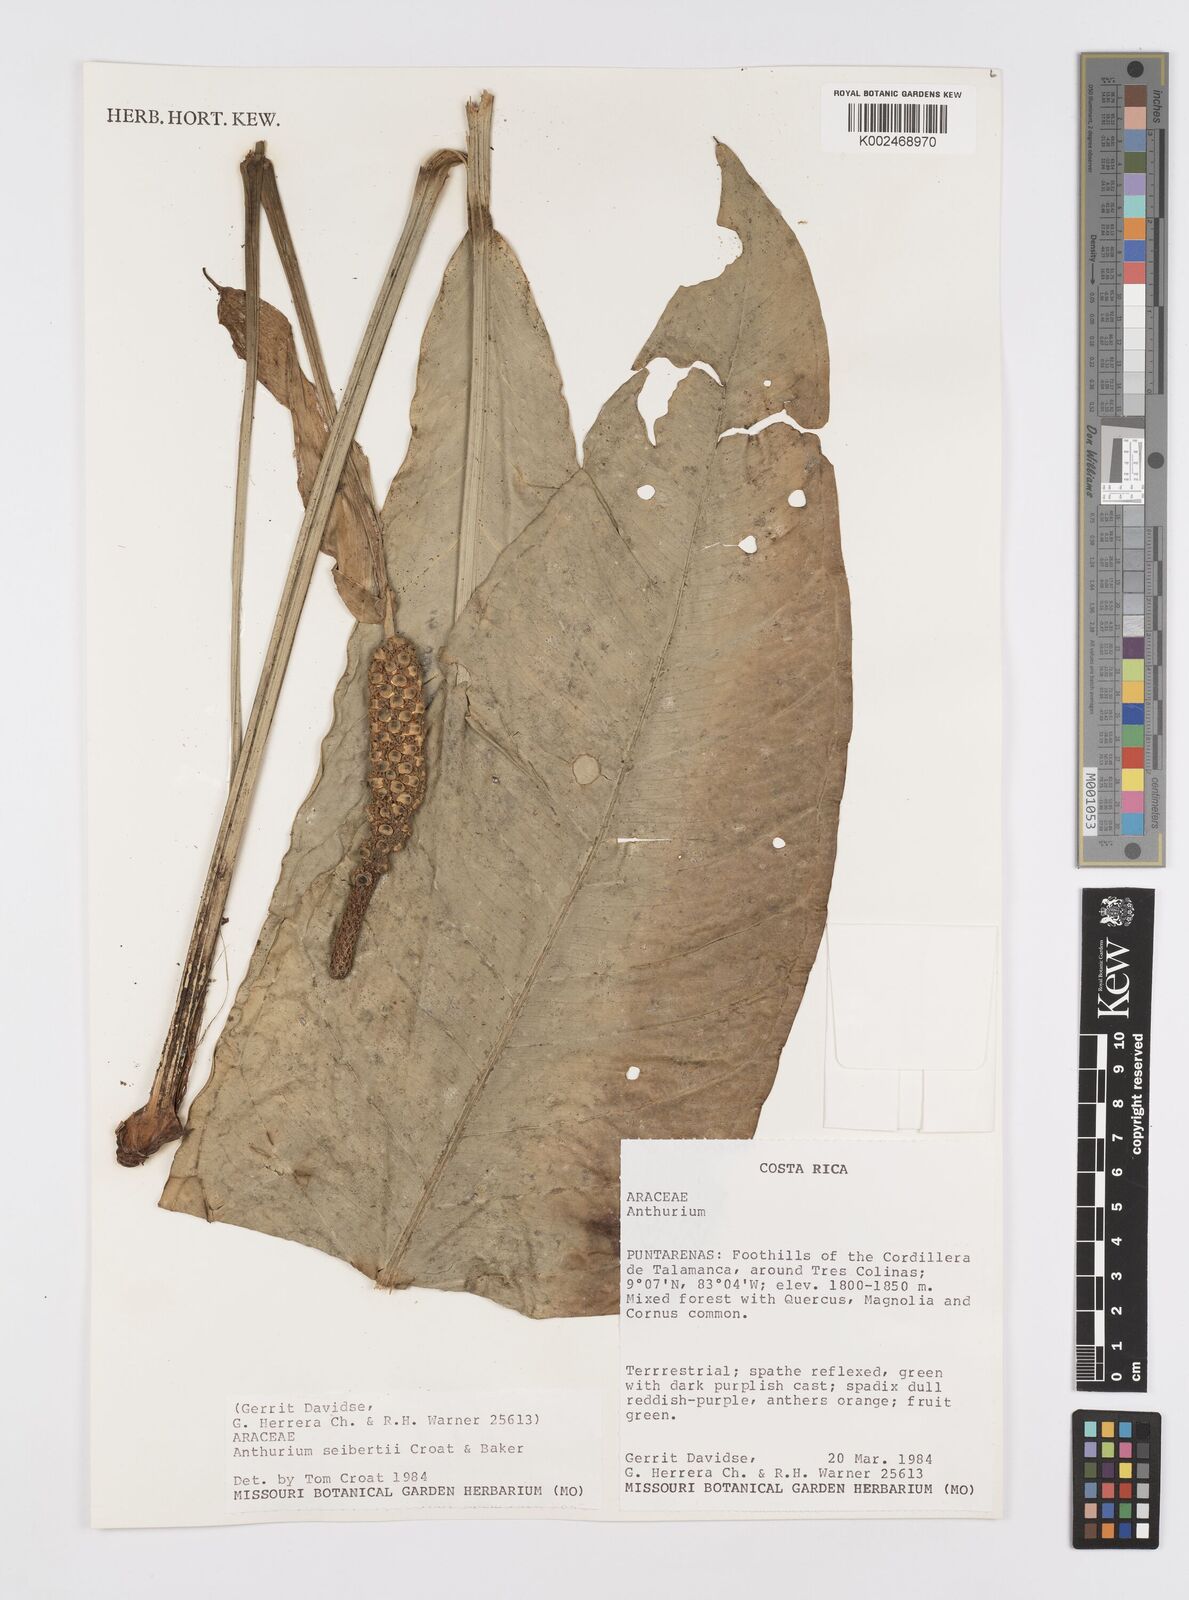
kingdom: Plantae
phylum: Tracheophyta
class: Liliopsida
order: Alismatales
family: Araceae
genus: Anthurium
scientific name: Anthurium seibertii
